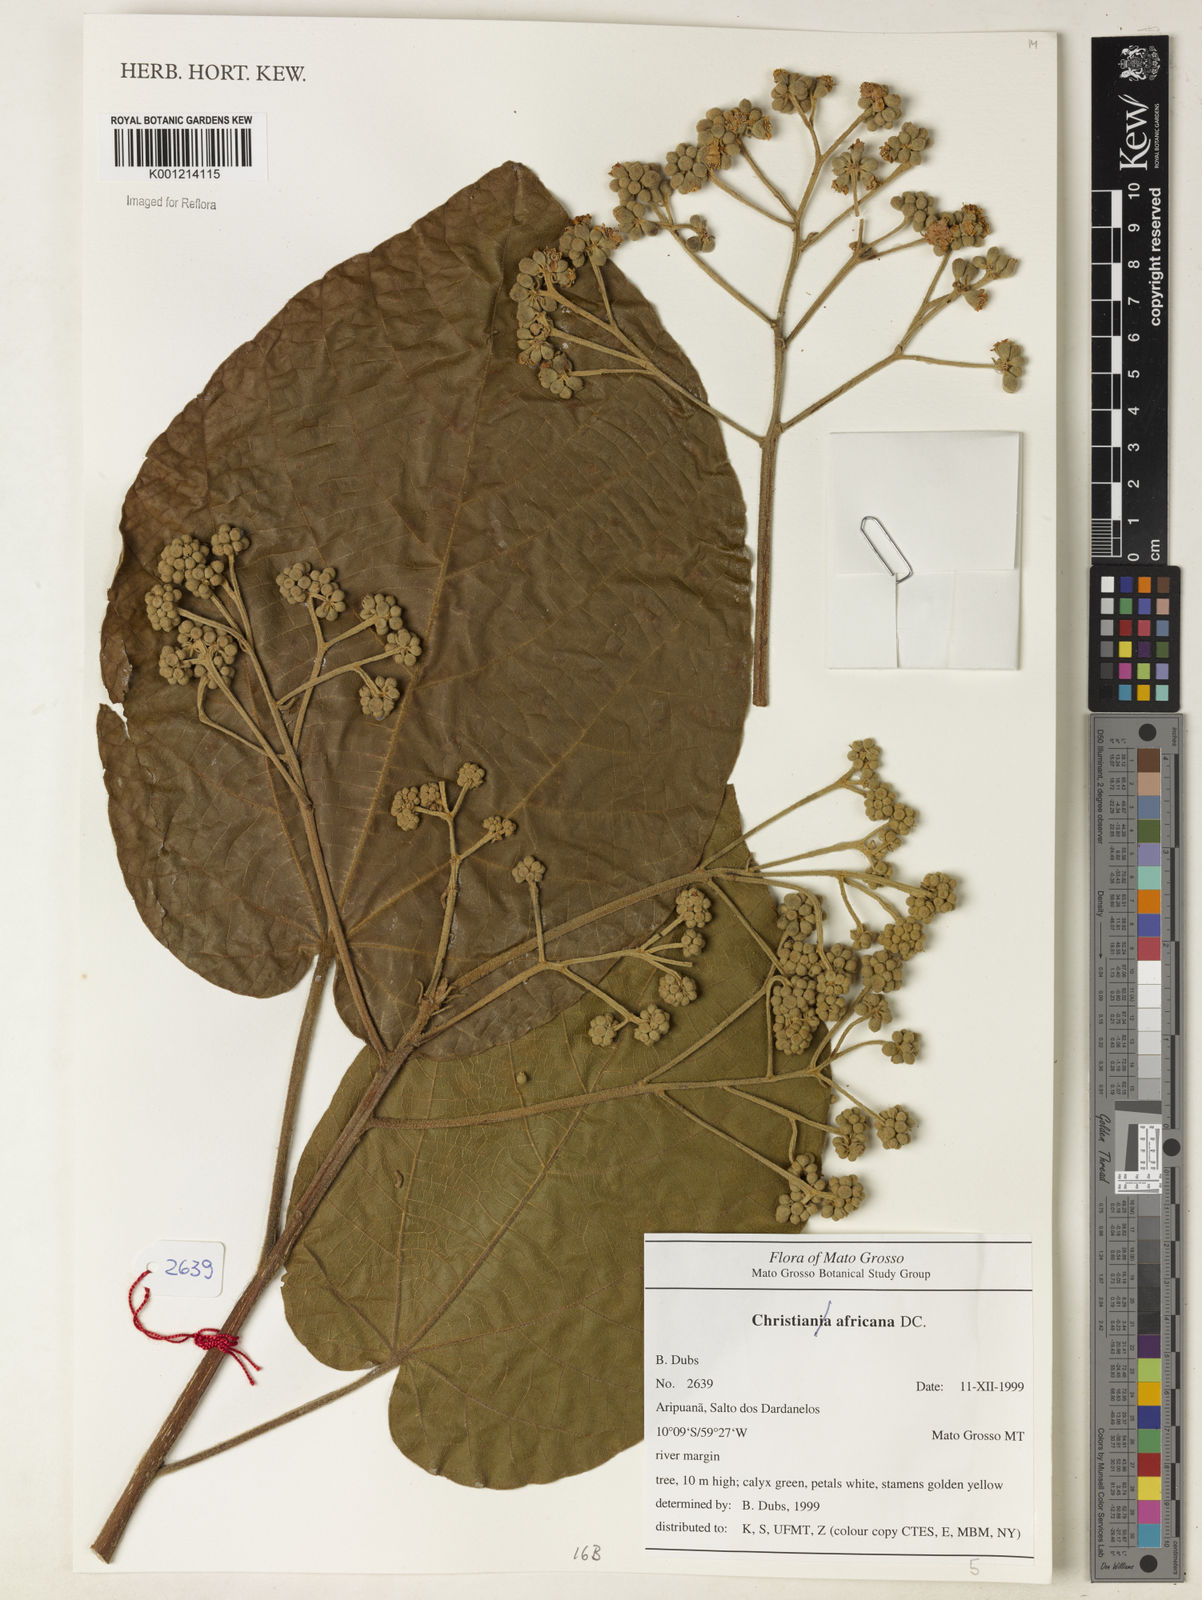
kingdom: Plantae
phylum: Tracheophyta
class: Magnoliopsida
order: Malvales
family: Malvaceae
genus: Christiana
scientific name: Christiana africana
